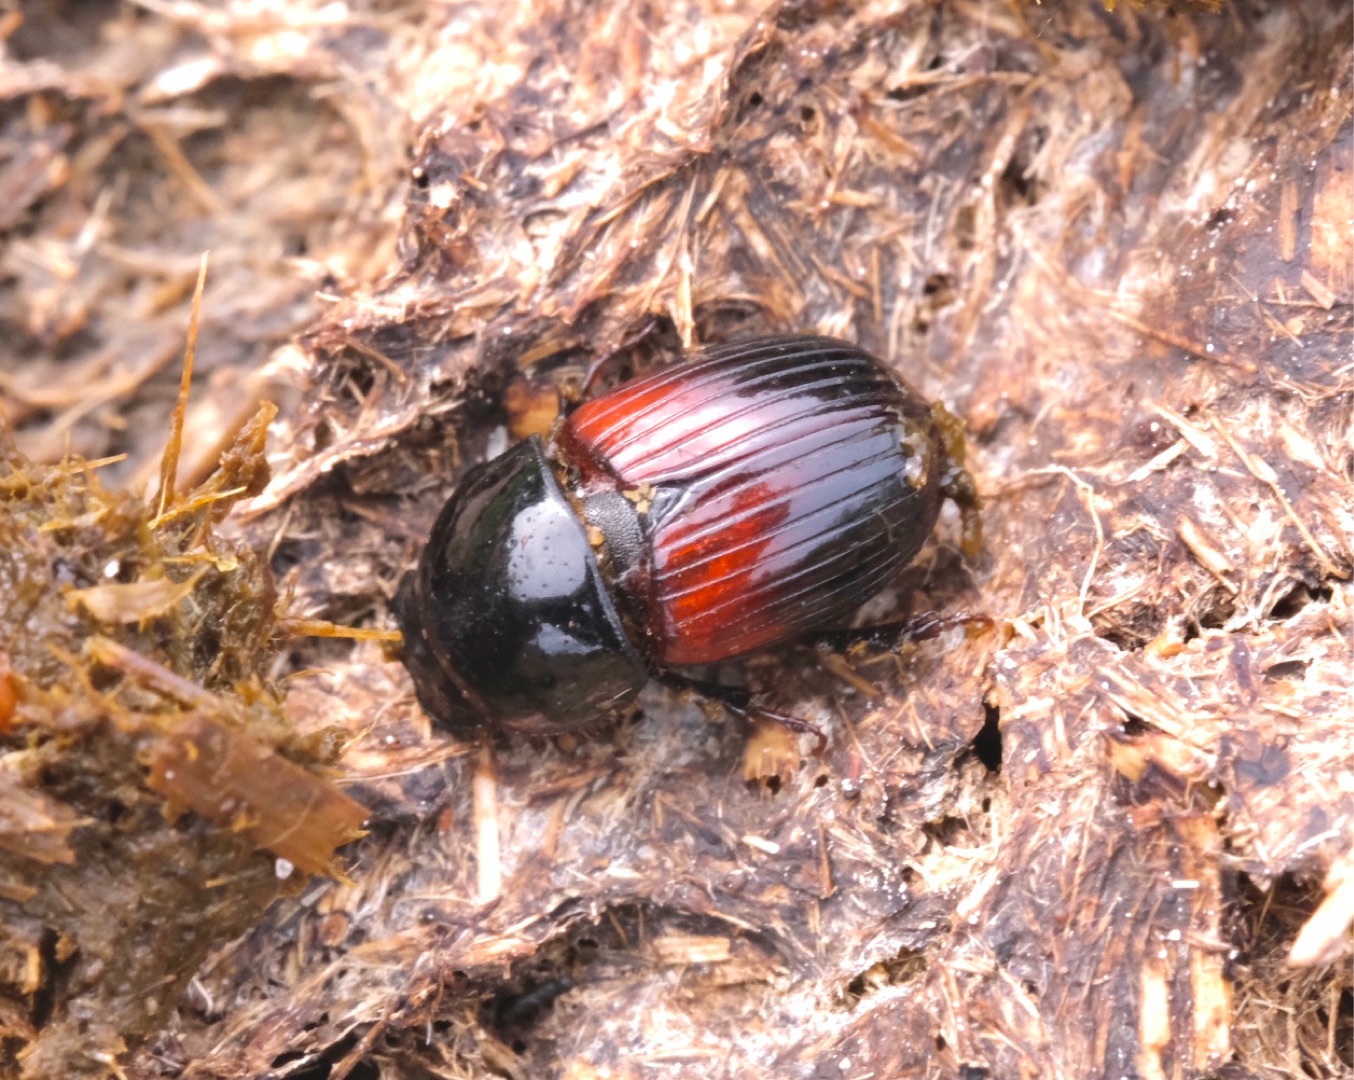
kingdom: Animalia
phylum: Arthropoda
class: Insecta
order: Coleoptera
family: Scarabaeidae
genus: Rhodaphodius
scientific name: Rhodaphodius foetens
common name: Rødbuget møgbille
